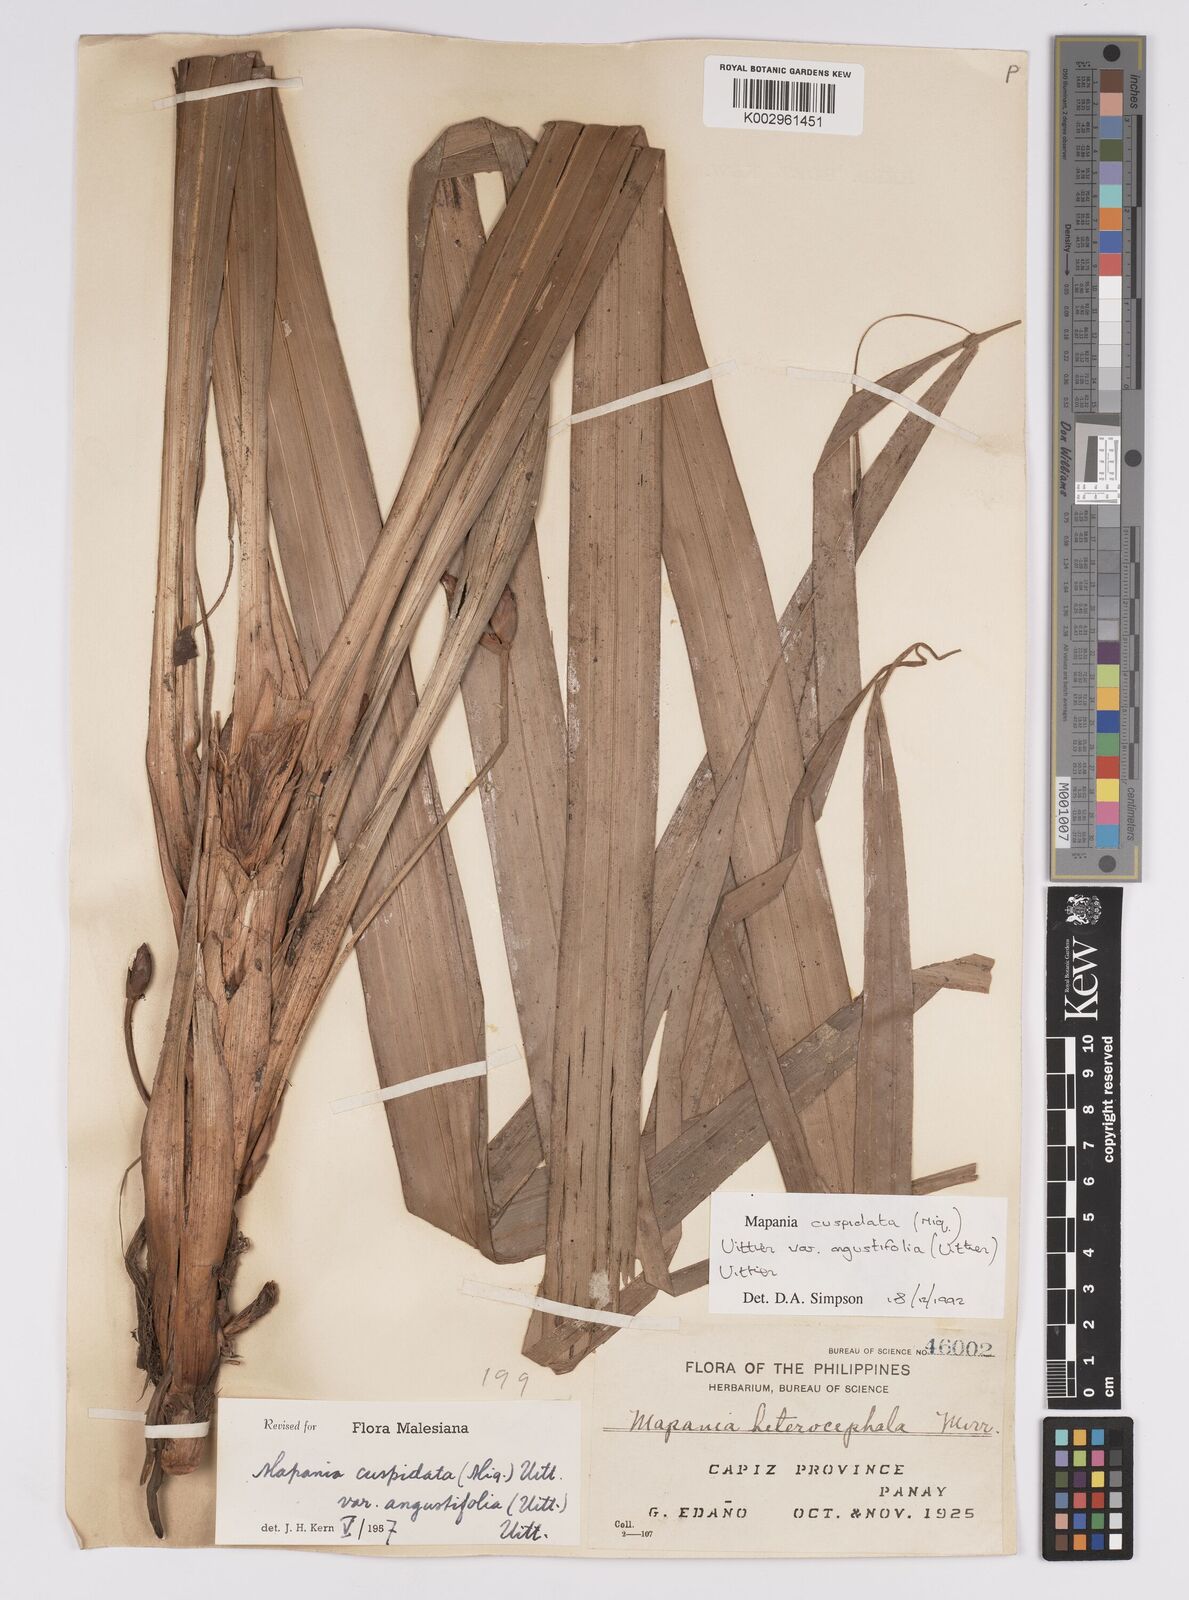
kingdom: Plantae
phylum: Tracheophyta
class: Liliopsida
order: Poales
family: Cyperaceae
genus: Mapania
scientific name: Mapania cuspidata
